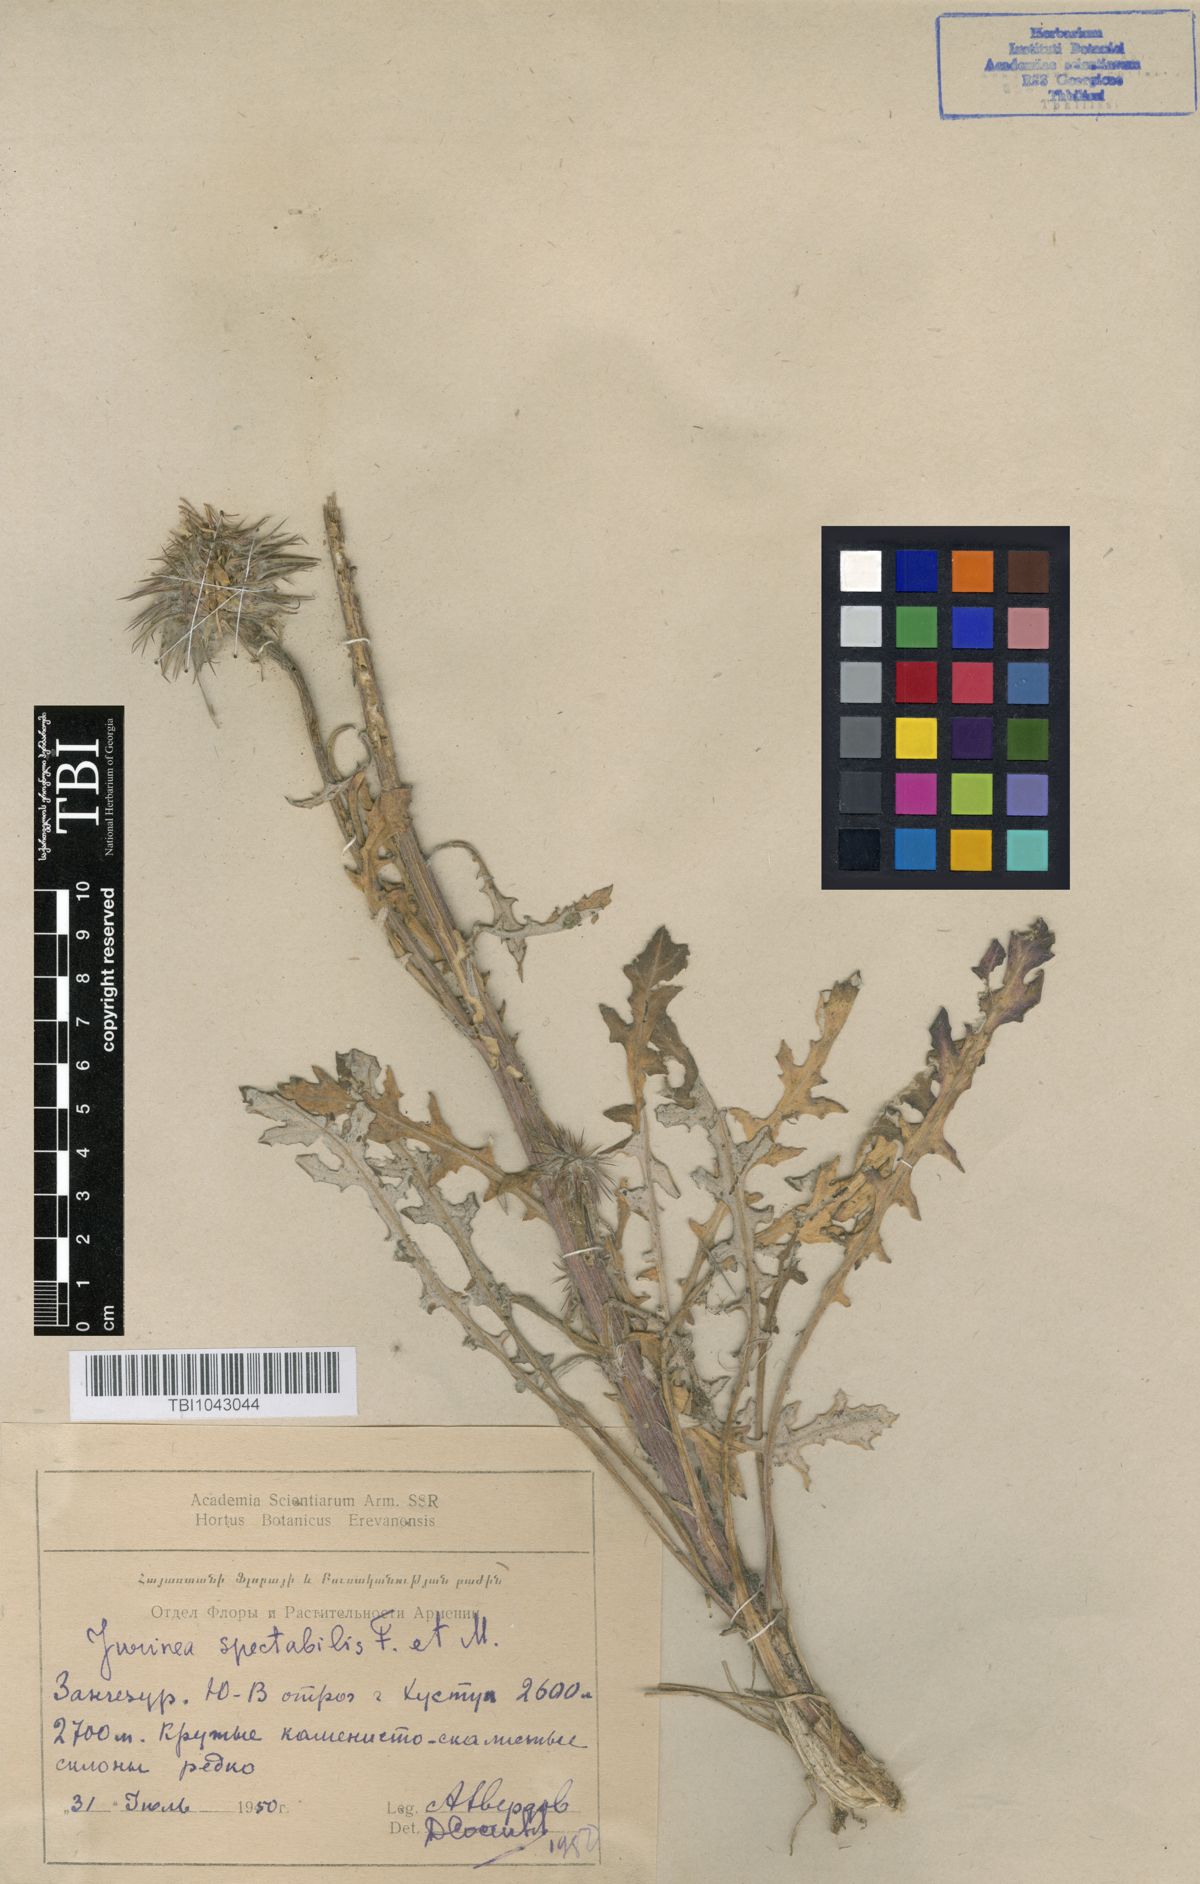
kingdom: Plantae
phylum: Tracheophyta
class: Magnoliopsida
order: Asterales
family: Asteraceae
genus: Jurinea
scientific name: Jurinea spectabilis
